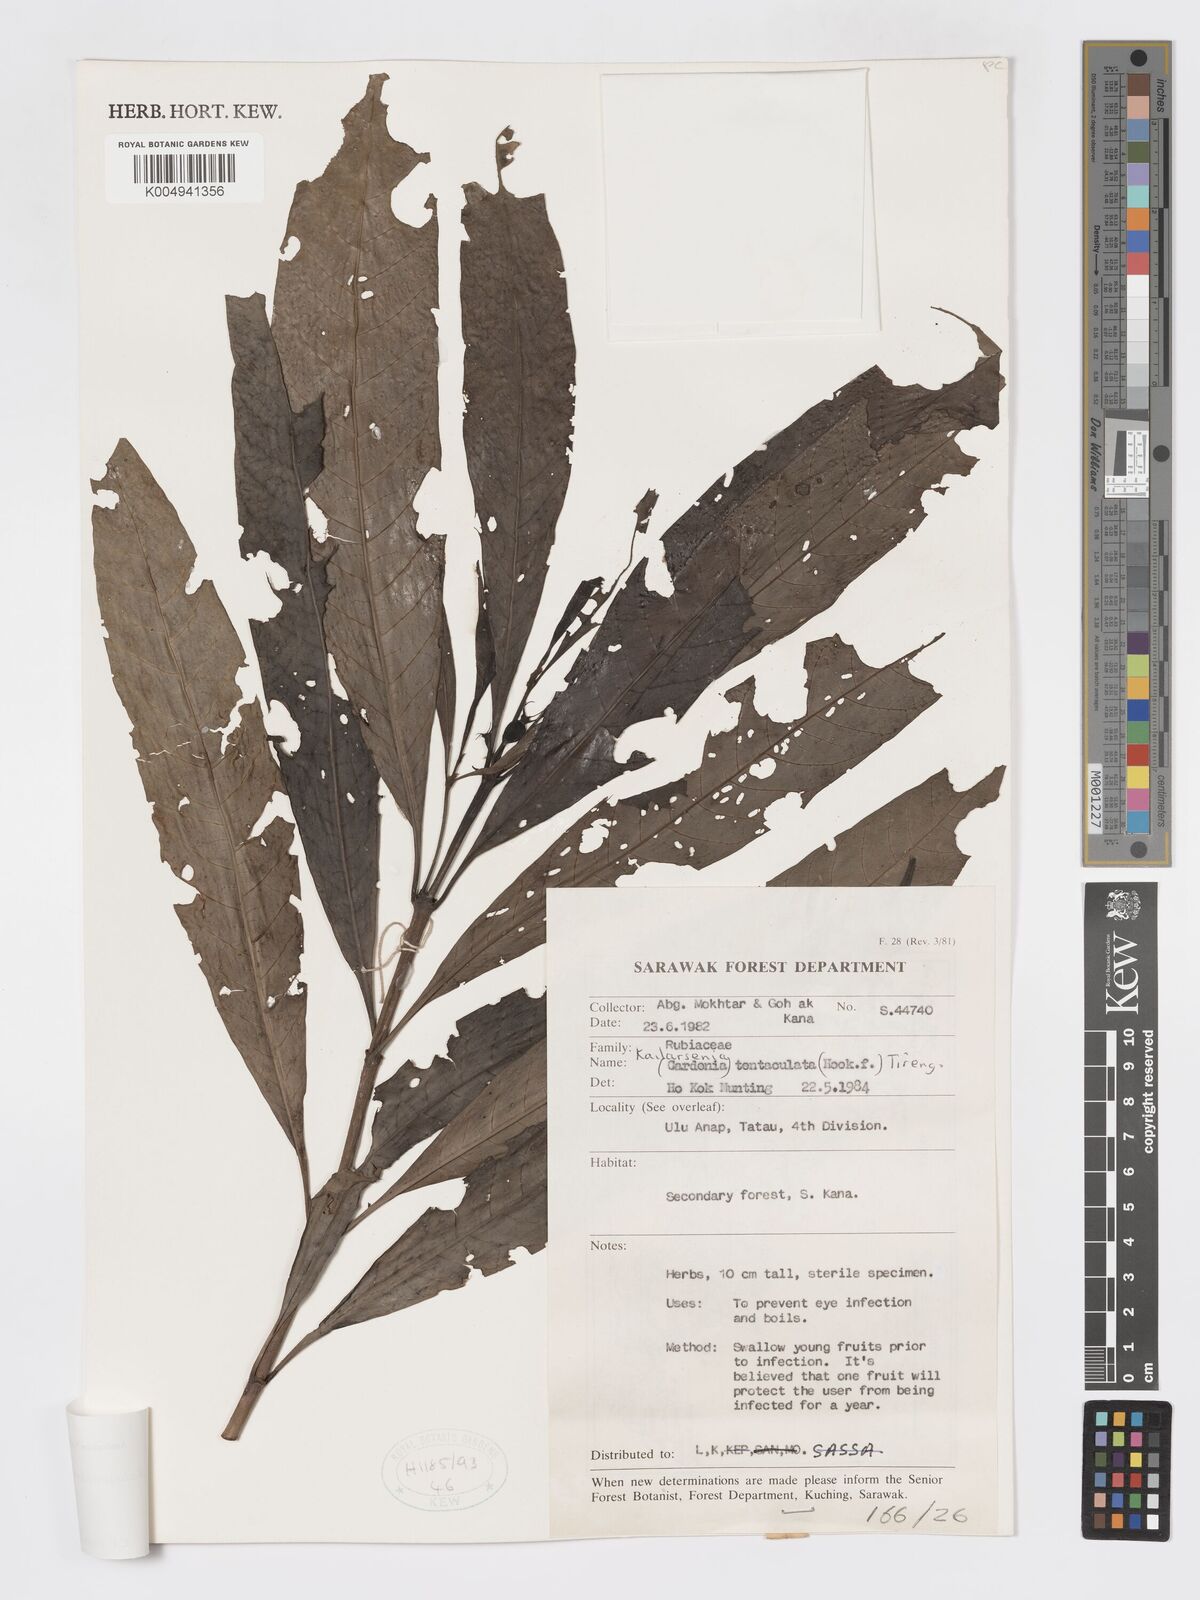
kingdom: Plantae
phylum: Tracheophyta
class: Magnoliopsida
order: Gentianales
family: Rubiaceae
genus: Kailarsenia
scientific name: Kailarsenia tentaculata
